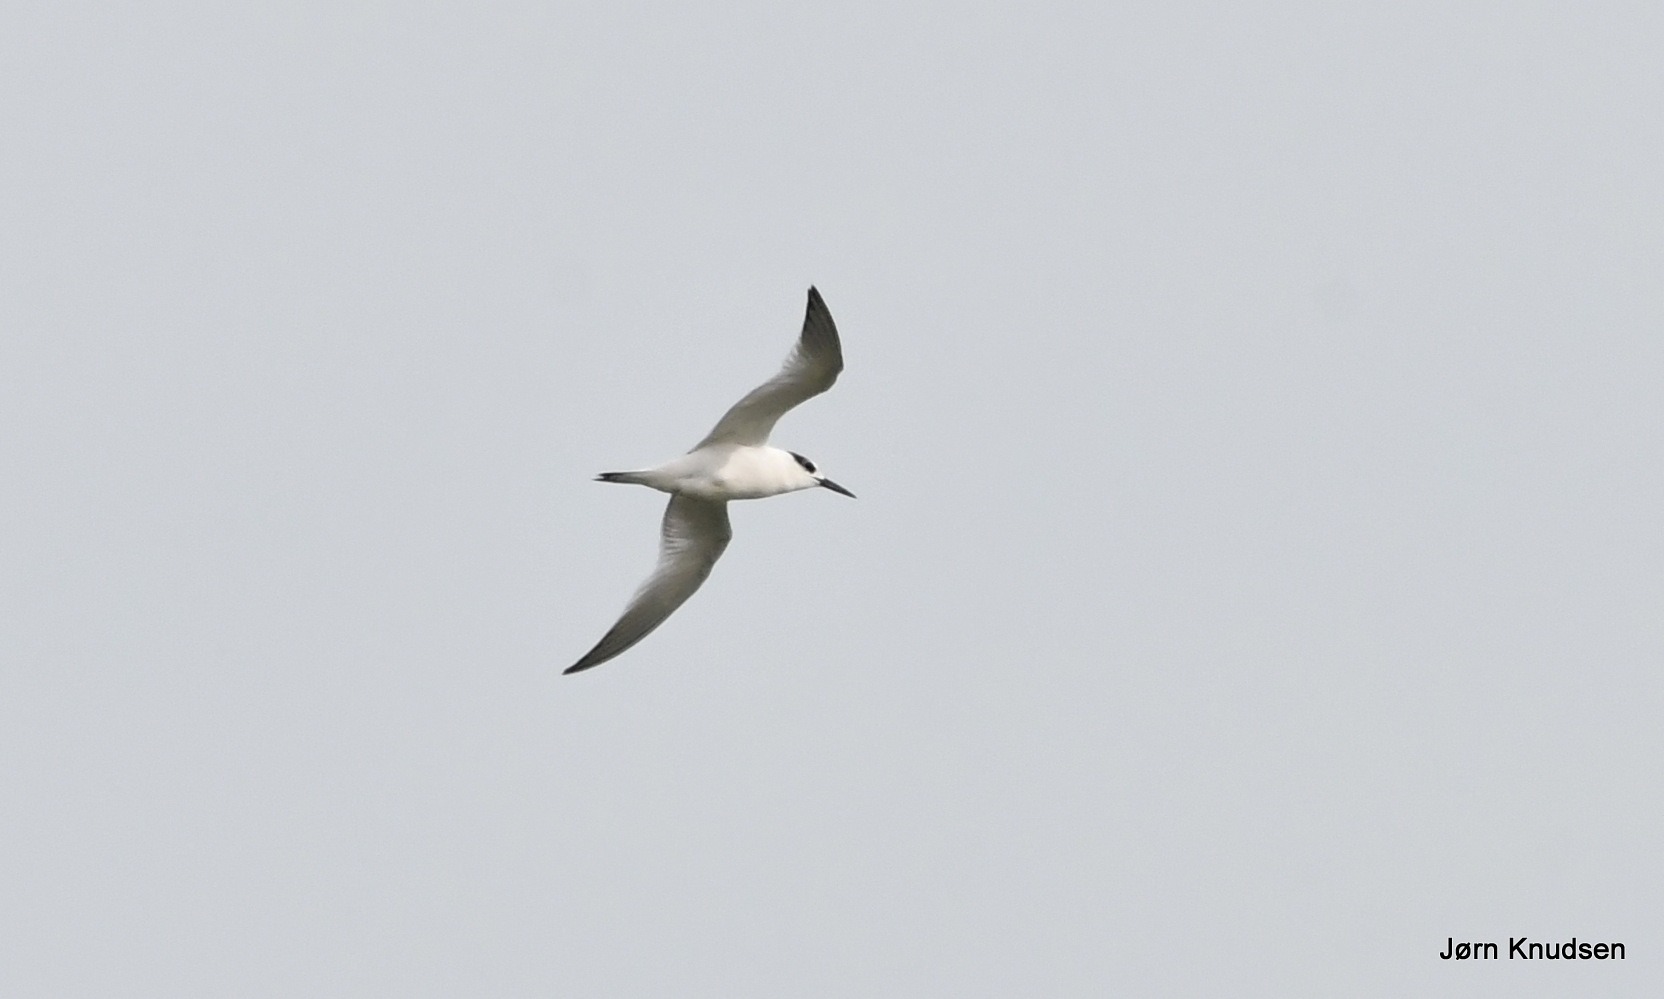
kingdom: Animalia
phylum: Chordata
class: Aves
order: Charadriiformes
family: Laridae
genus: Thalasseus
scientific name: Thalasseus sandvicensis
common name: Splitterne
